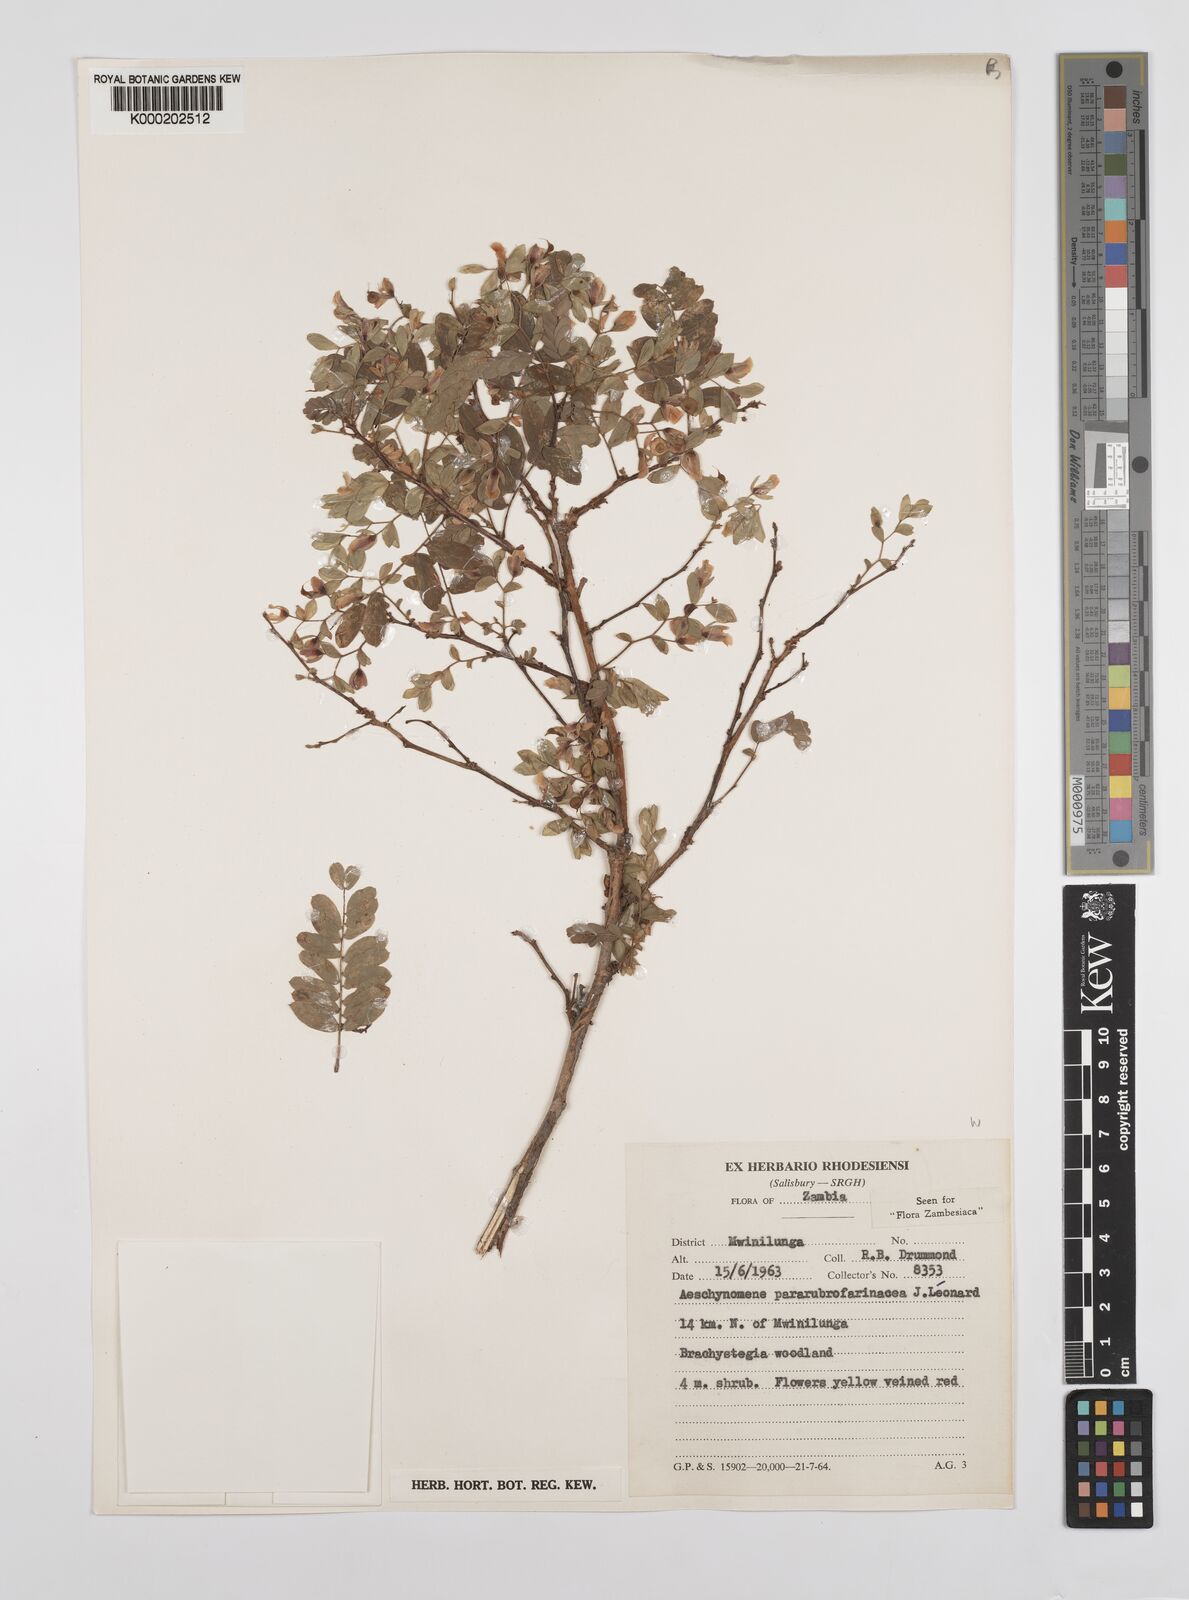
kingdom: Plantae
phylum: Tracheophyta
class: Magnoliopsida
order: Fabales
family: Fabaceae
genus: Aeschynomene
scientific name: Aeschynomene pararubrofarinacea
